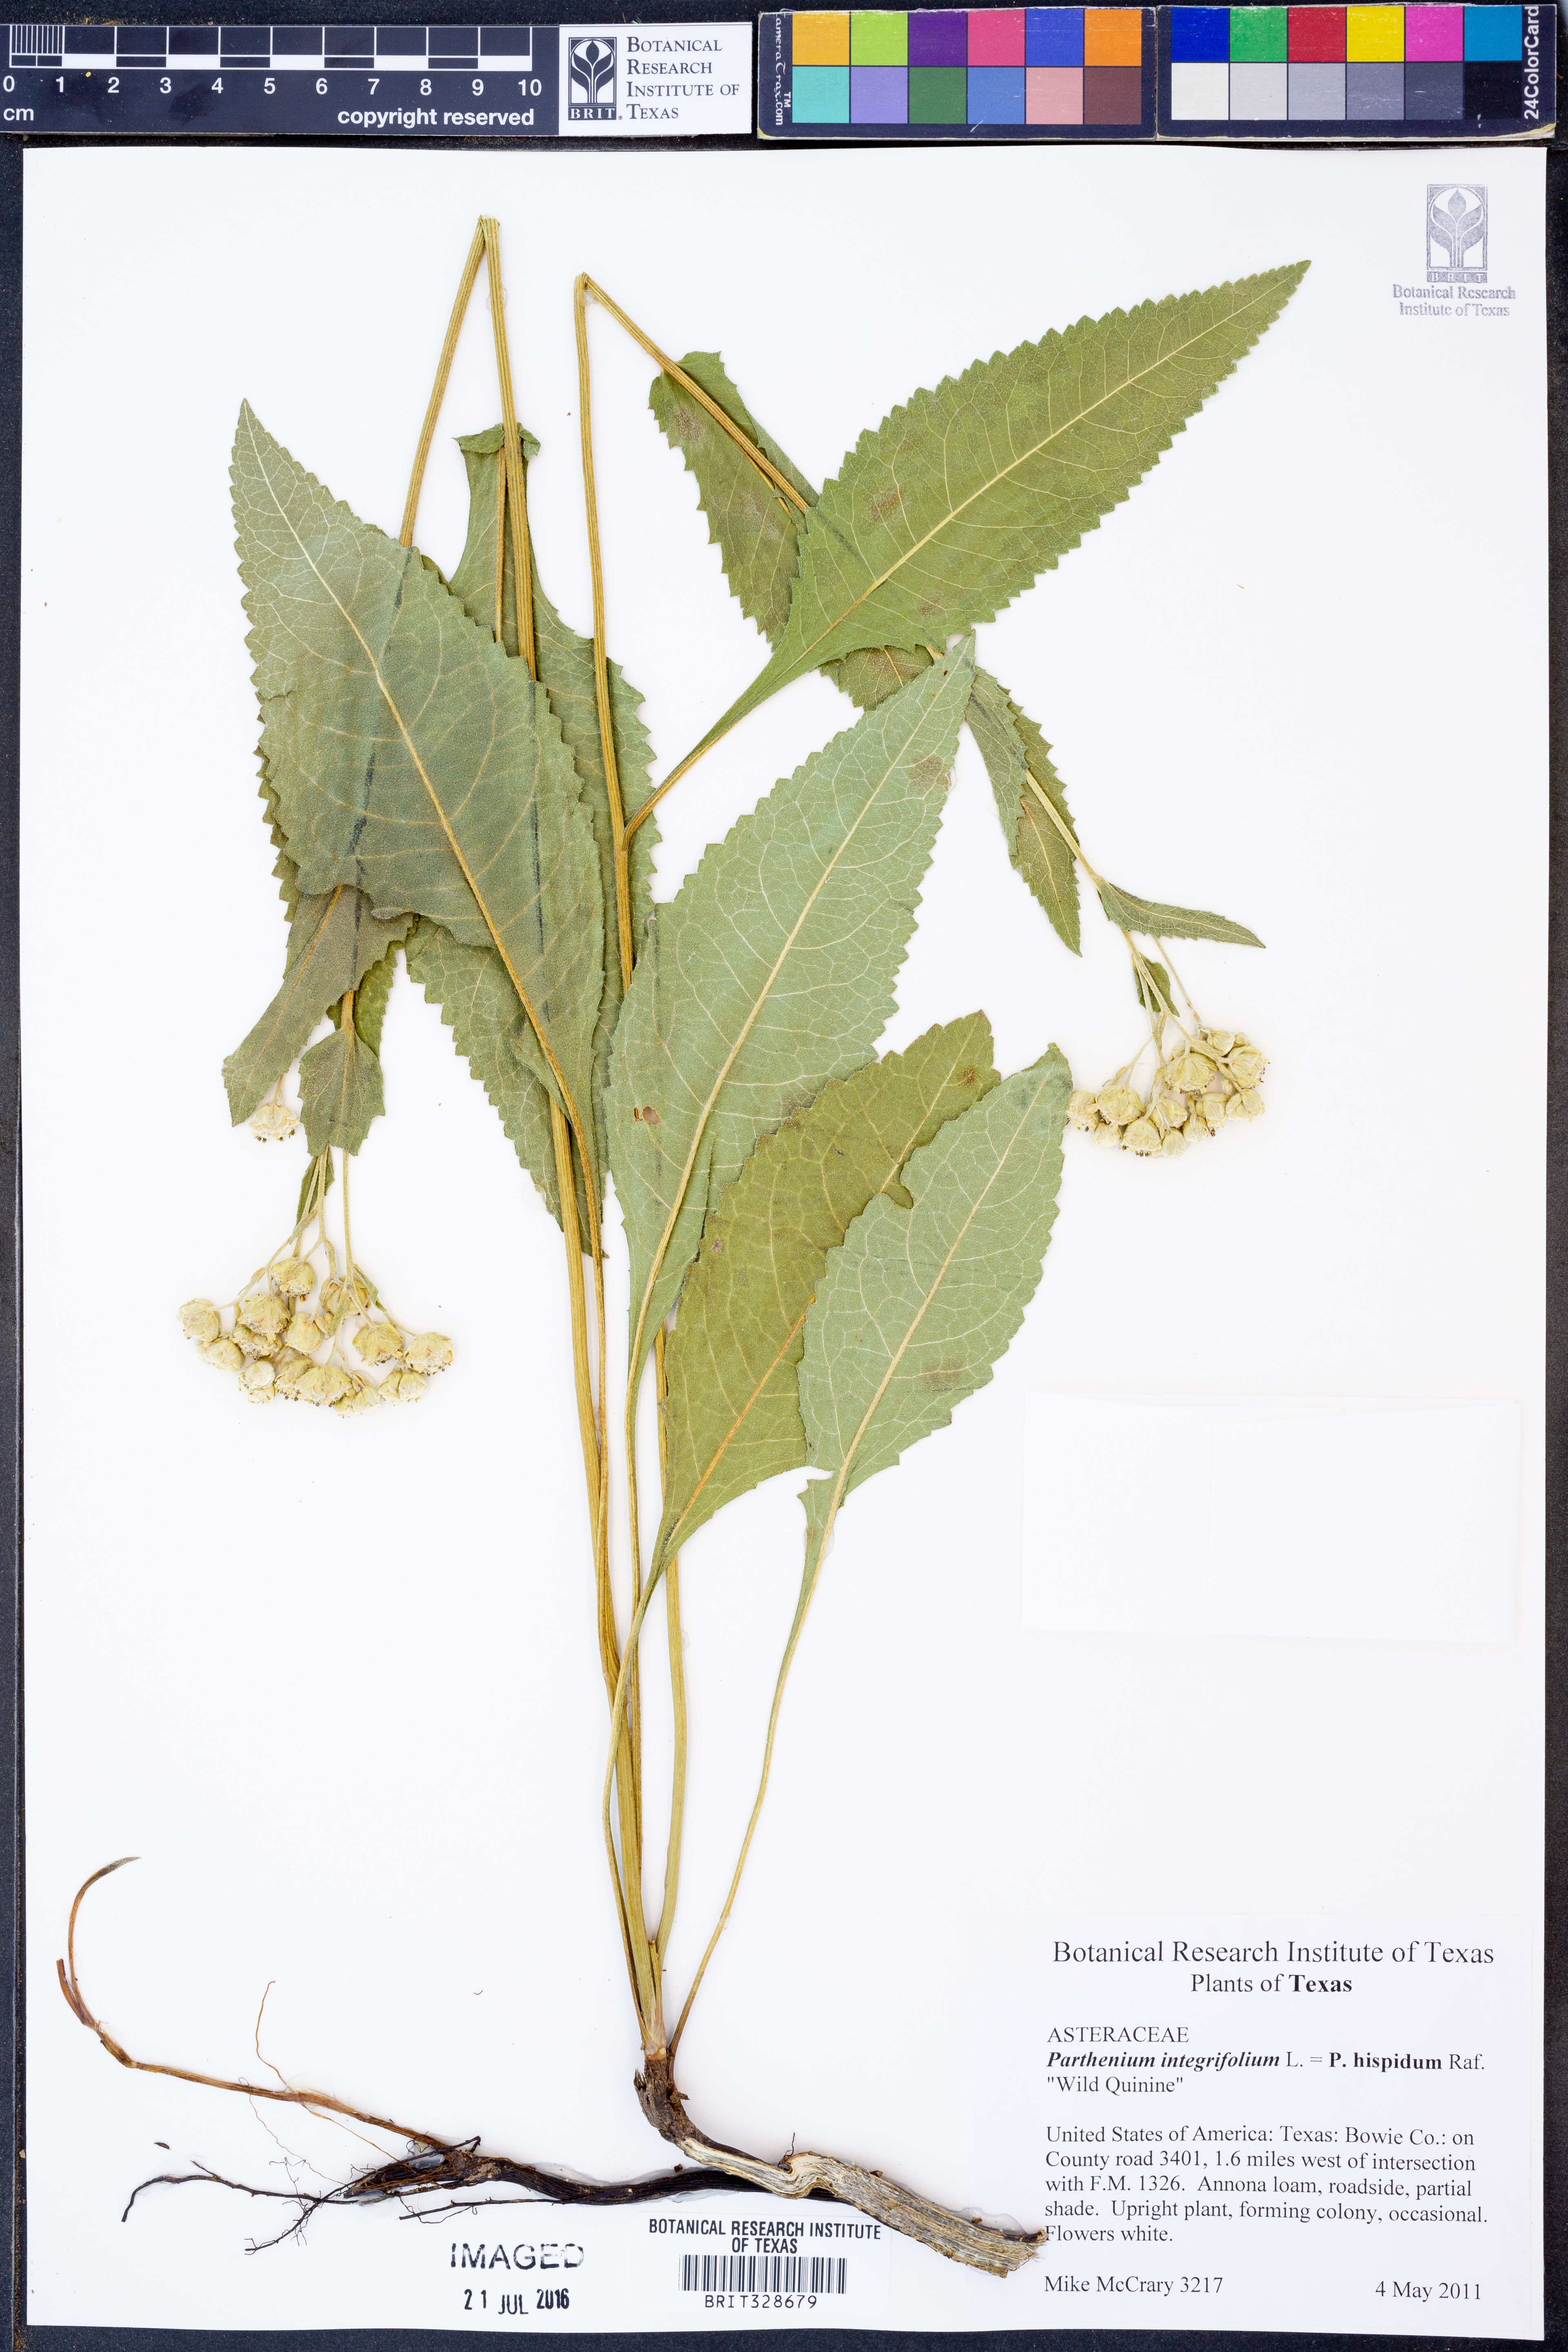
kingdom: Plantae
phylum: Tracheophyta
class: Magnoliopsida
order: Asterales
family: Asteraceae
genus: Parthenium
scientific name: Parthenium hispidum
